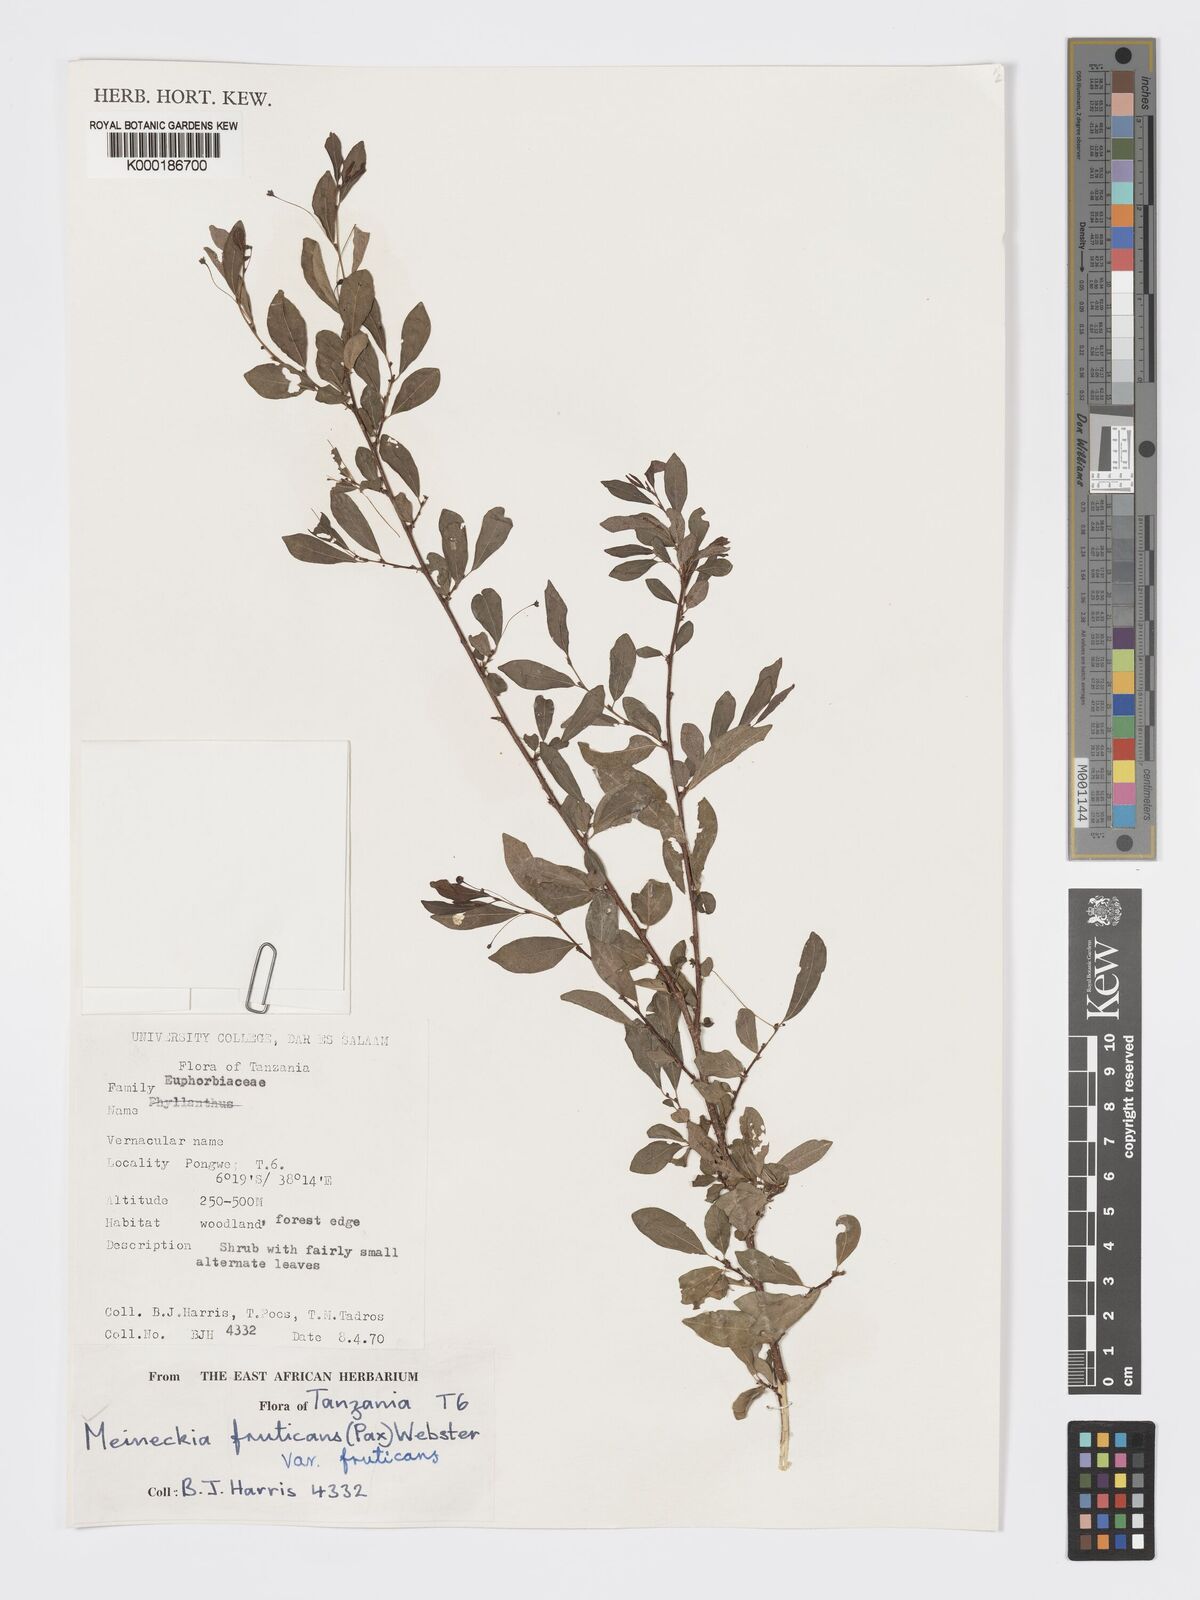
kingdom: Plantae
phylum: Tracheophyta
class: Magnoliopsida
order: Malpighiales
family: Phyllanthaceae
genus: Meineckia
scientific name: Meineckia fruticans
